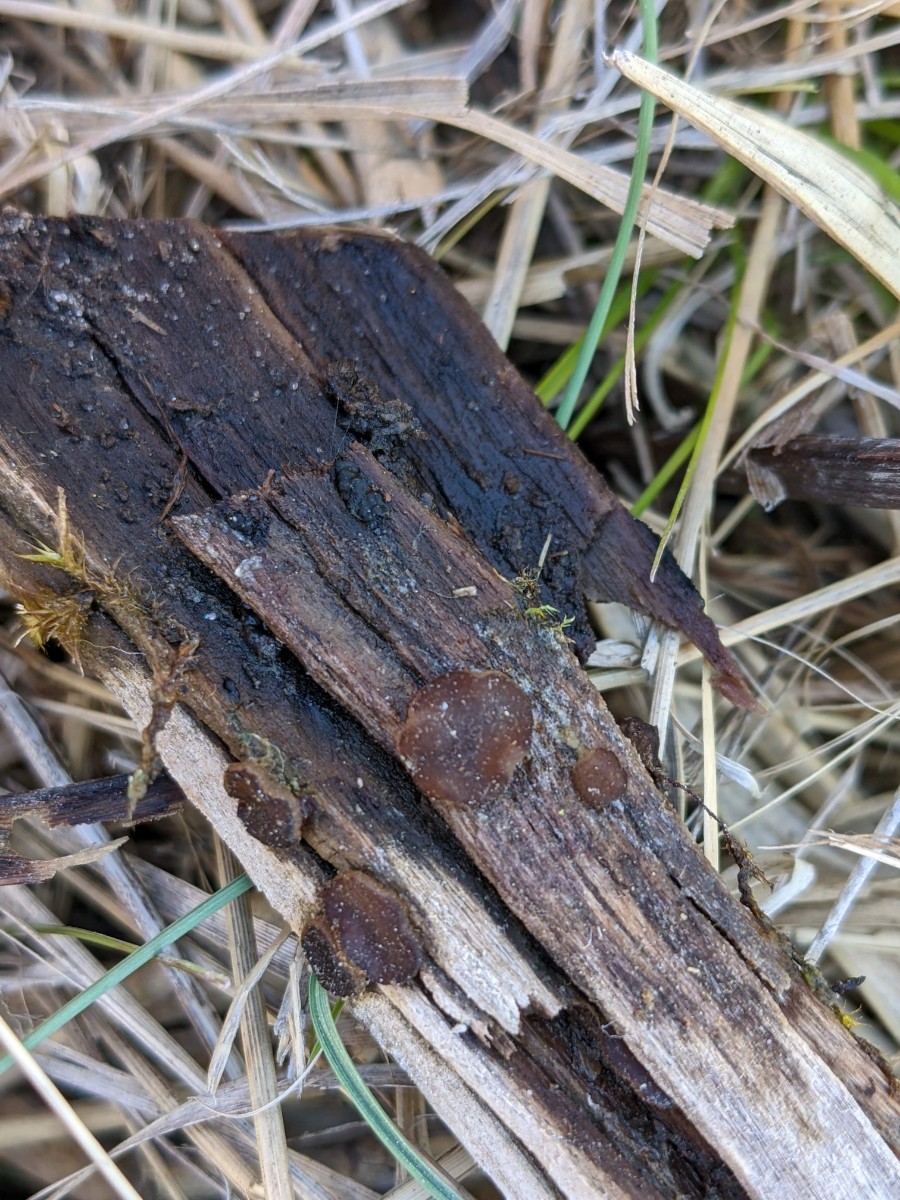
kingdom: Fungi
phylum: Ascomycota
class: Pezizomycetes
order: Pezizales
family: Pezizaceae
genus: Adelphella
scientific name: Adelphella babingtonii
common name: almindelig bækbæger
